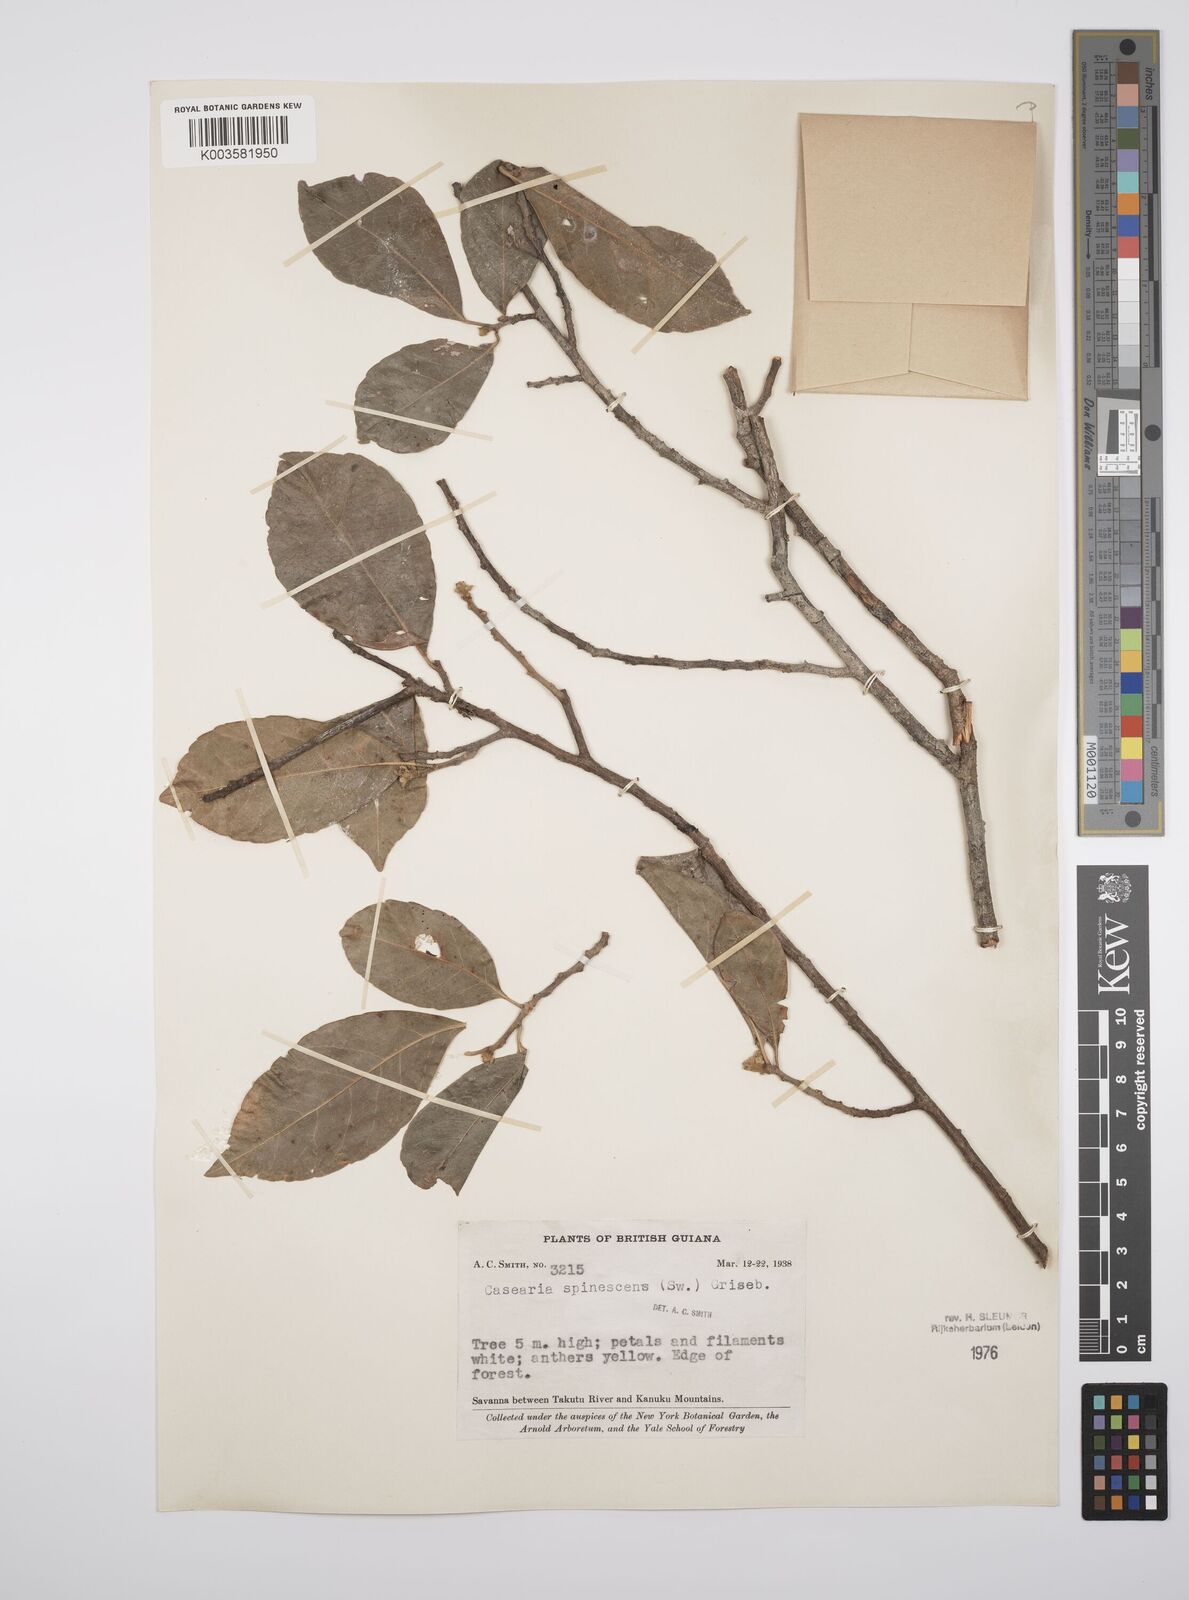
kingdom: Plantae
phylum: Tracheophyta
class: Magnoliopsida
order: Malpighiales
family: Salicaceae
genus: Casearia
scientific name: Casearia spinescens
